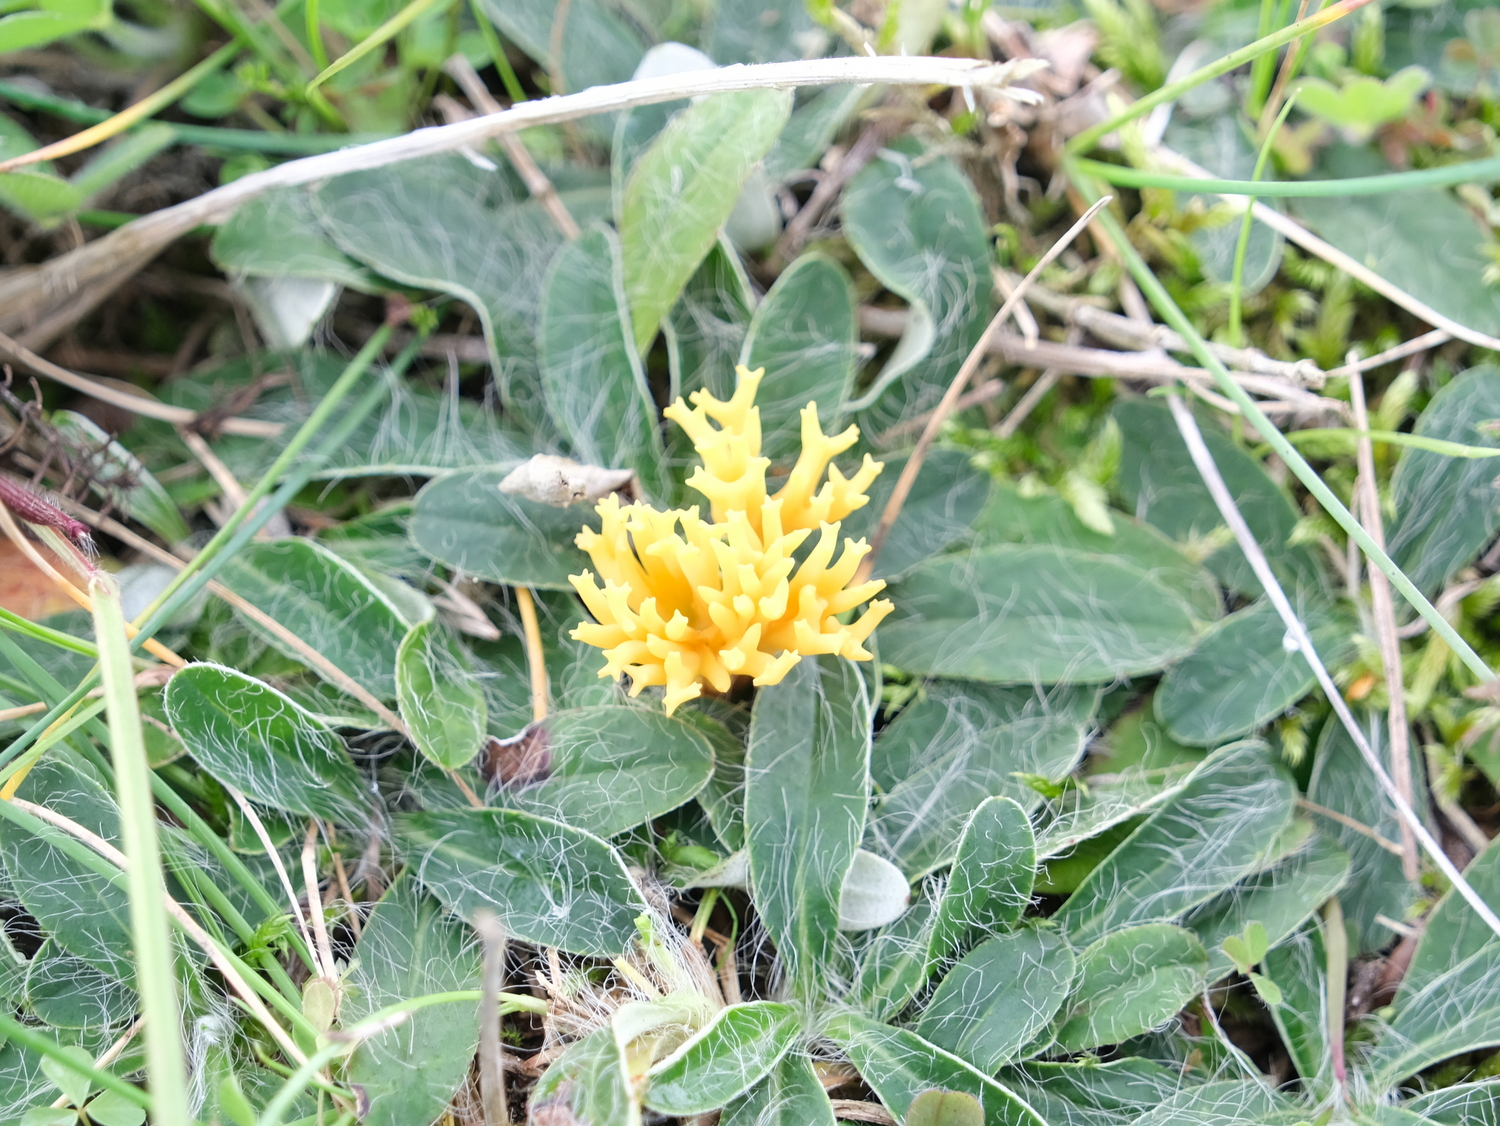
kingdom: Fungi
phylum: Basidiomycota
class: Agaricomycetes
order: Agaricales
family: Clavariaceae
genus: Clavulinopsis
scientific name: Clavulinopsis corniculata
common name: eng-køllesvamp
